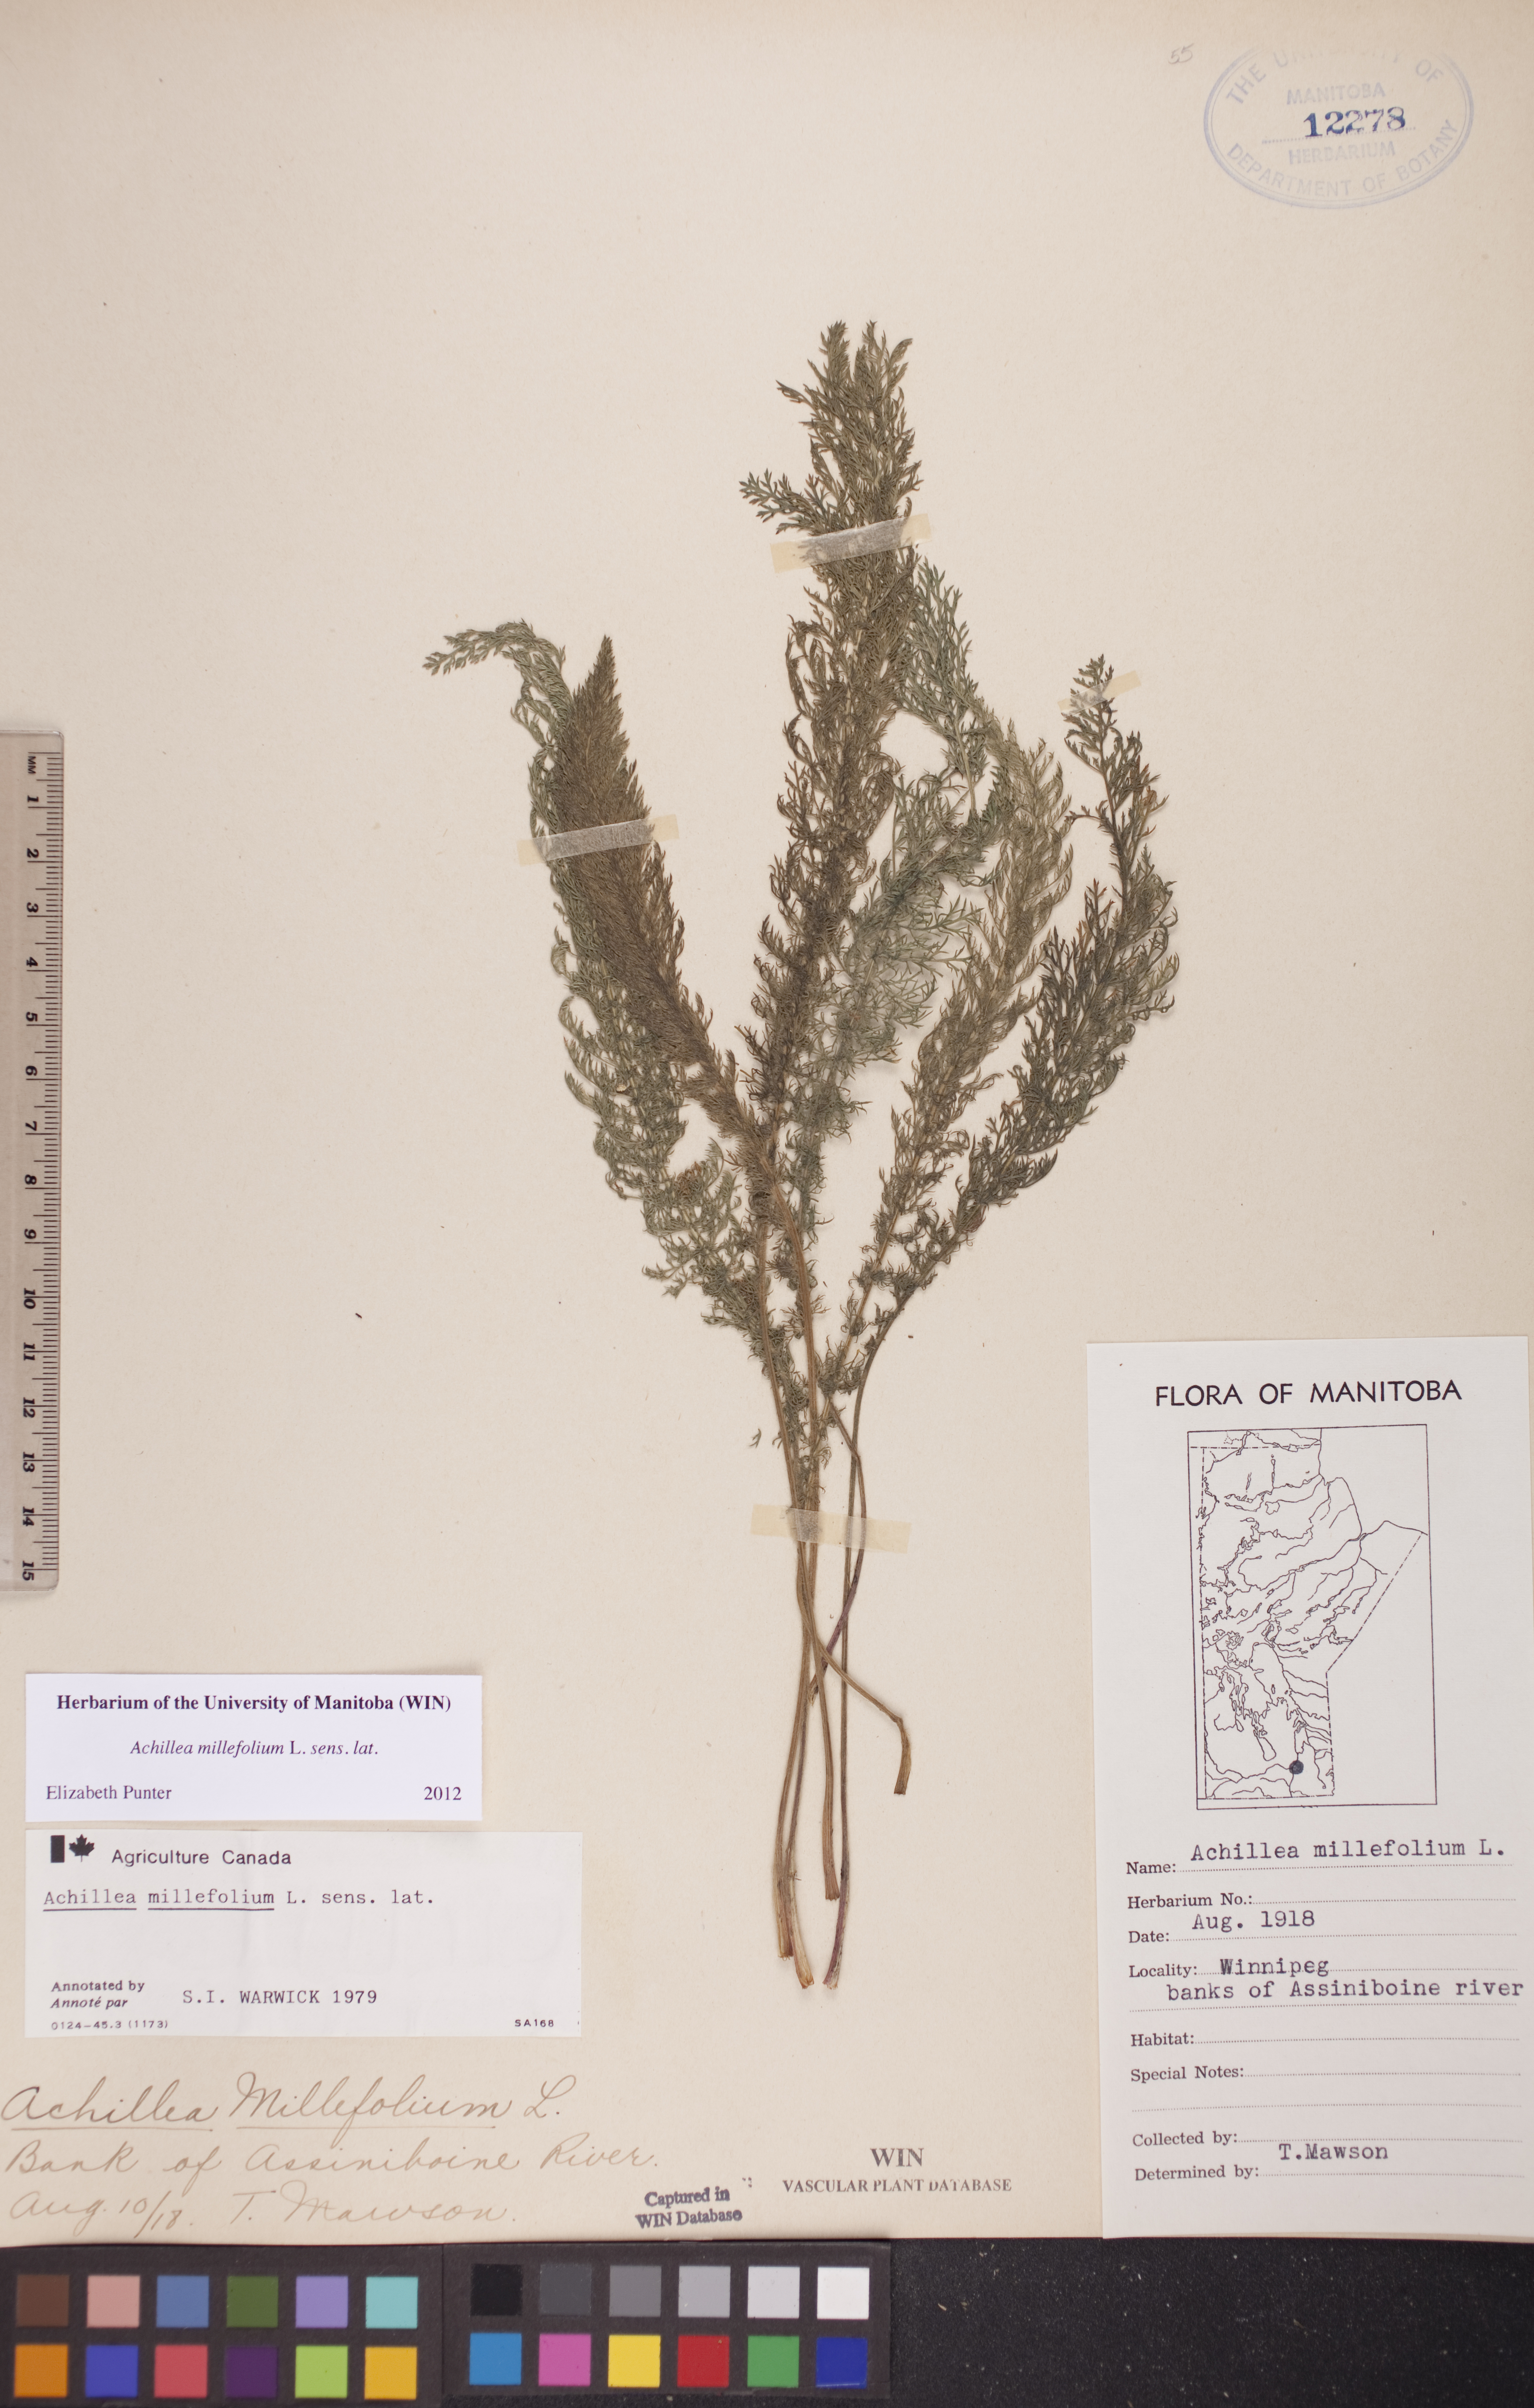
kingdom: Plantae
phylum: Tracheophyta
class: Magnoliopsida
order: Asterales
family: Asteraceae
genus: Achillea
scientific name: Achillea millefolium
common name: Yarrow
